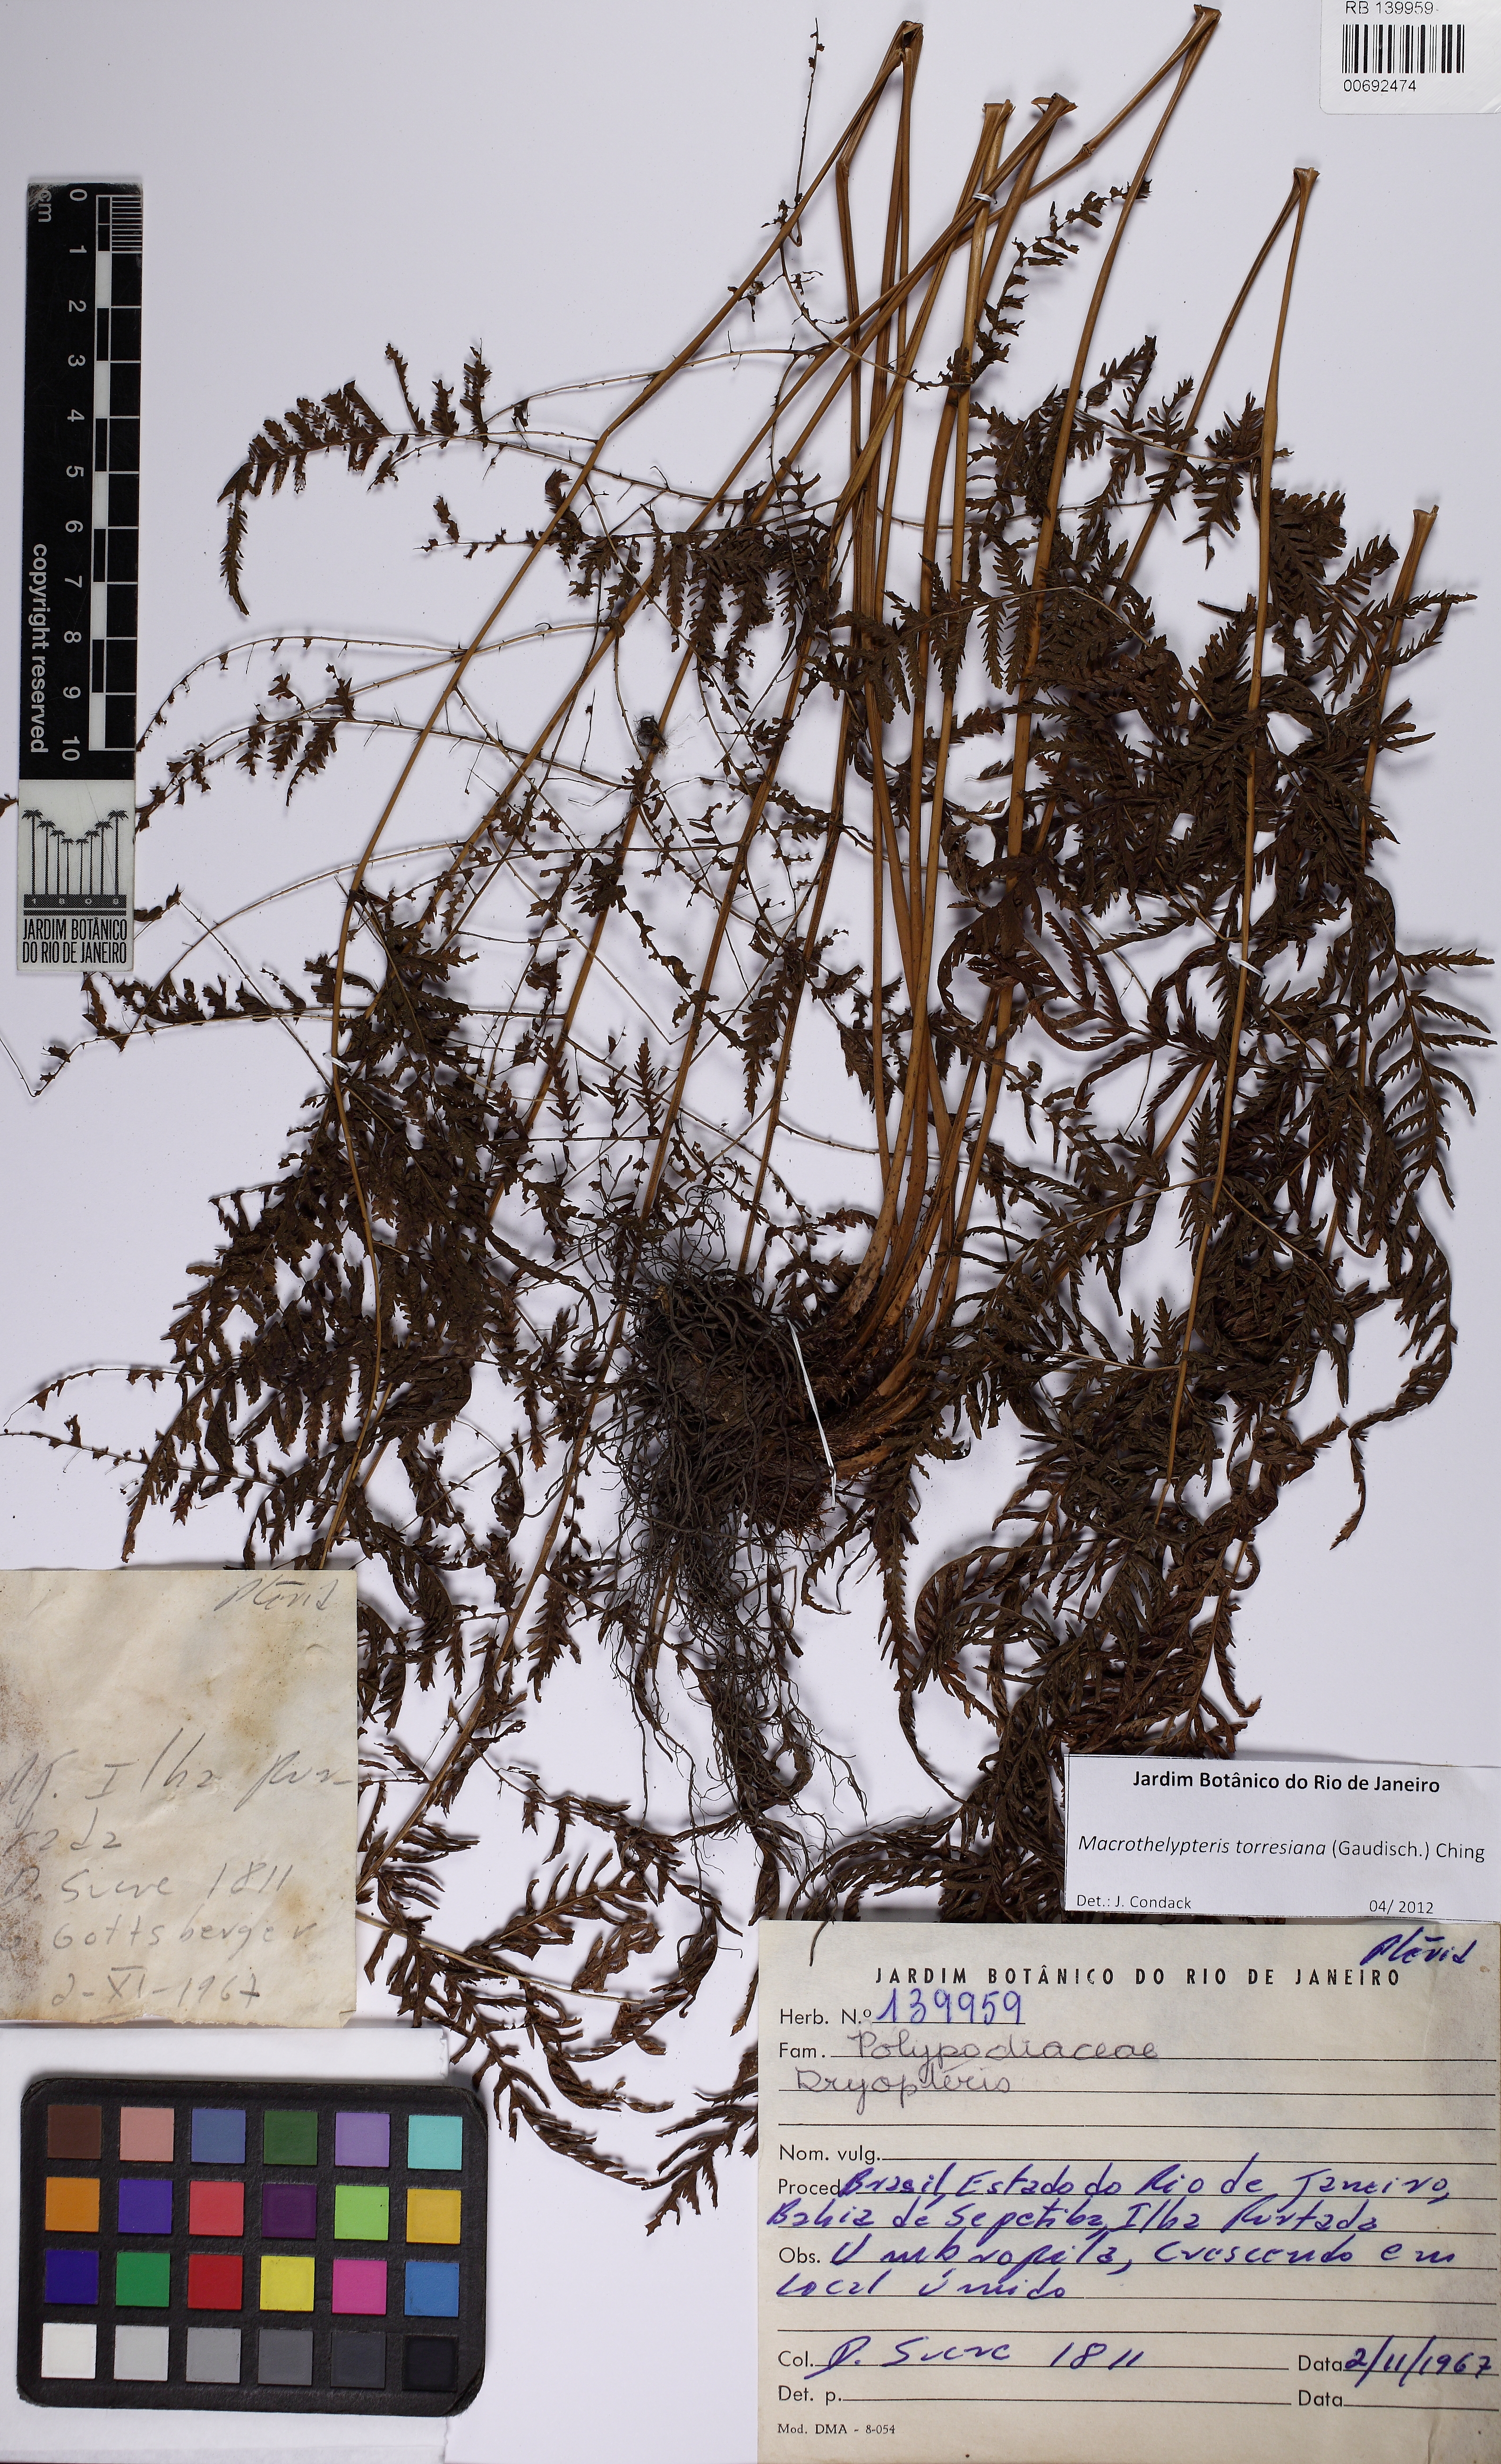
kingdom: Plantae
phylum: Tracheophyta
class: Polypodiopsida
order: Polypodiales
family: Thelypteridaceae
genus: Macrothelypteris
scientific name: Macrothelypteris torresiana
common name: Swordfern
